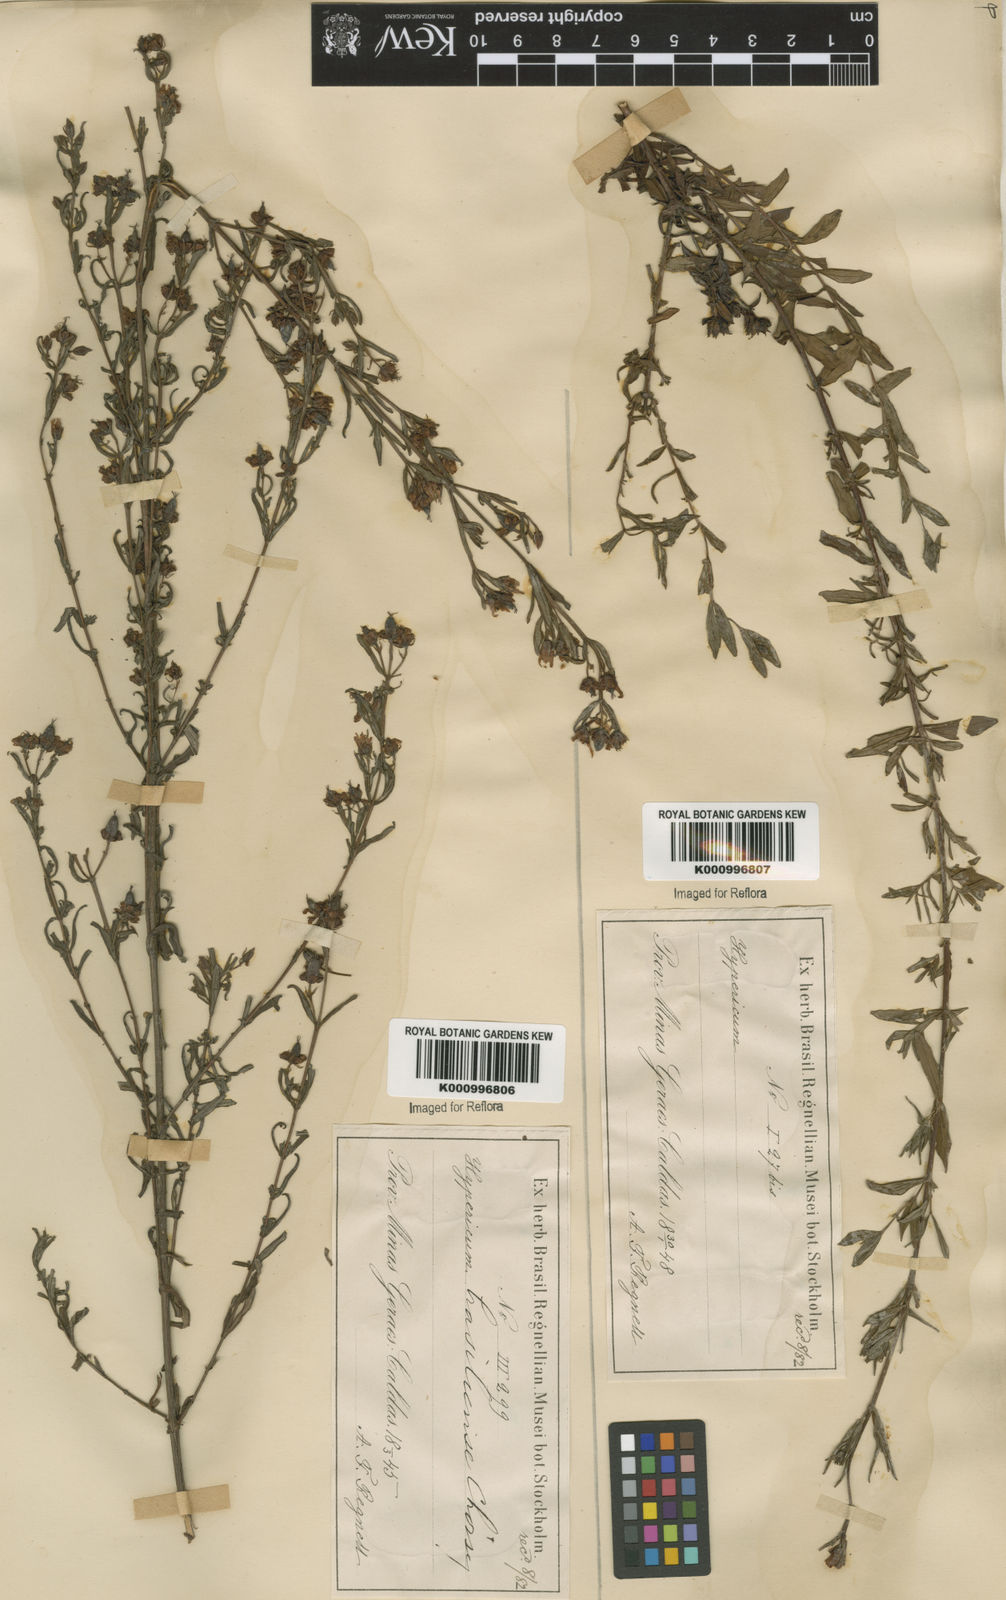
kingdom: Plantae
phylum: Tracheophyta
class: Magnoliopsida
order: Malpighiales
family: Hypericaceae
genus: Hypericum
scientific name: Hypericum brasiliense
